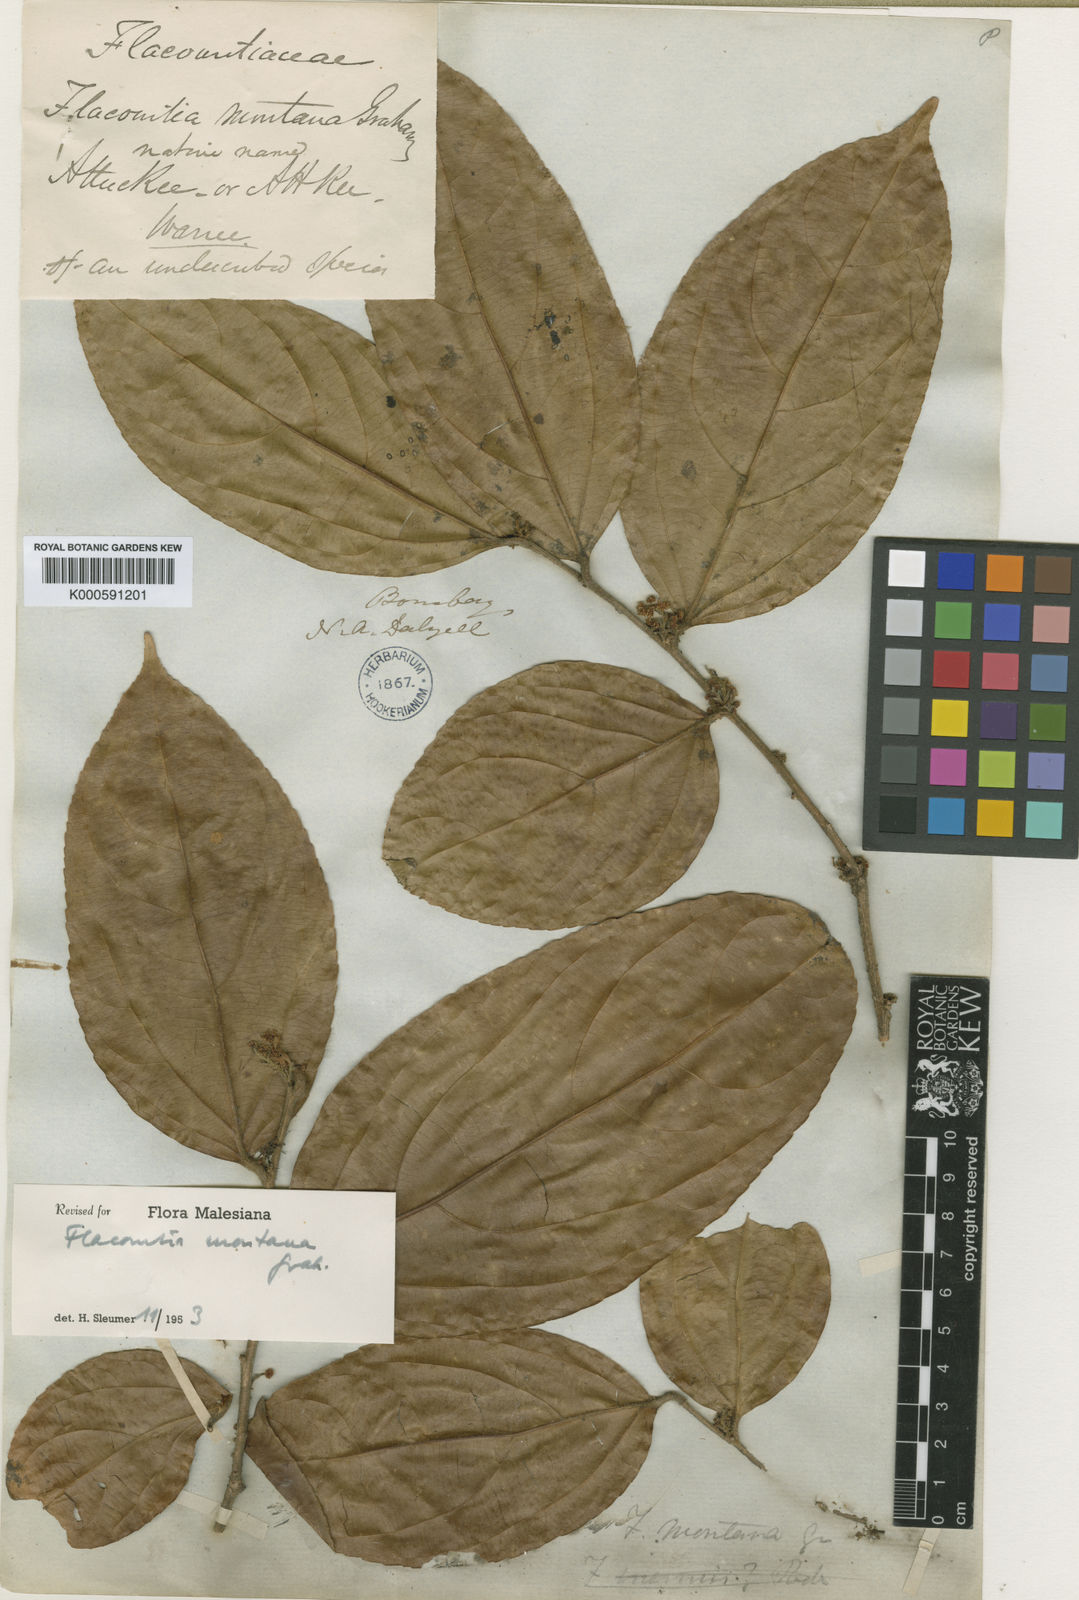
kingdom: Plantae
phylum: Tracheophyta
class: Magnoliopsida
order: Malpighiales
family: Salicaceae
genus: Flacourtia
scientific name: Flacourtia montana
